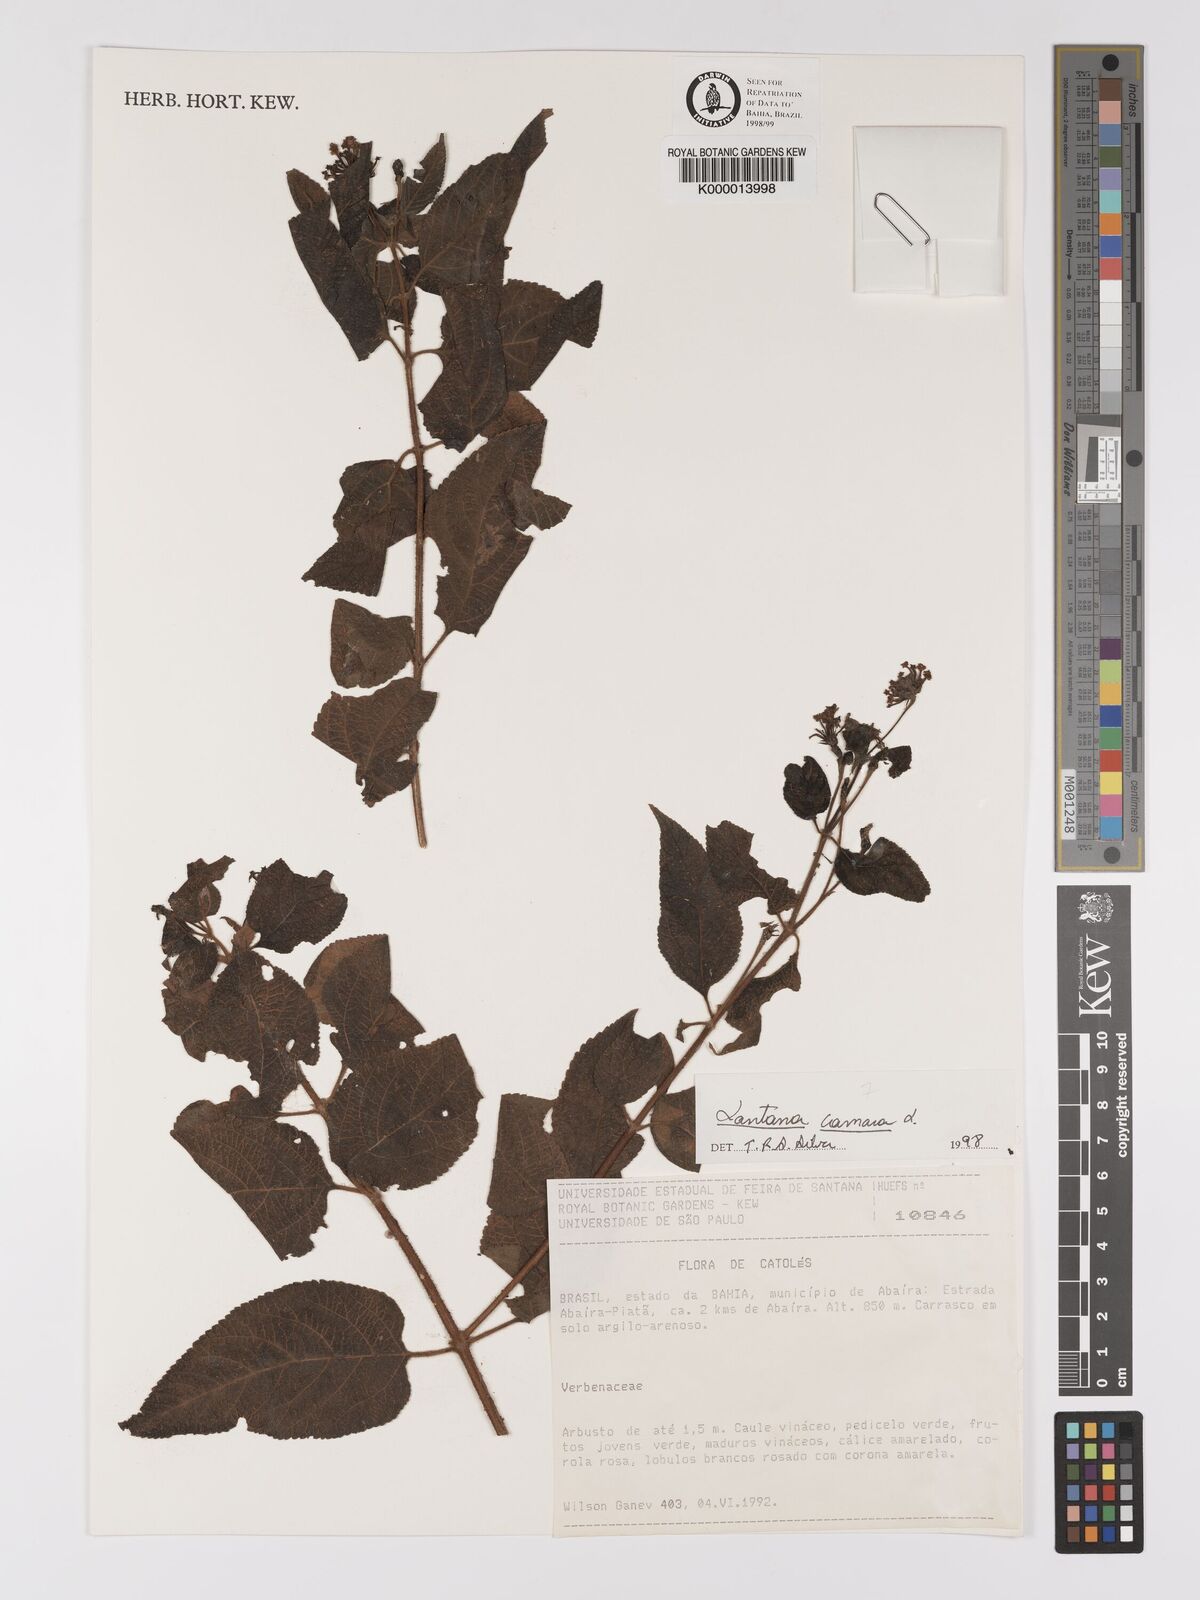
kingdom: Plantae
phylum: Tracheophyta
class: Magnoliopsida
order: Lamiales
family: Verbenaceae
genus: Lantana
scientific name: Lantana camara
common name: Lantana
